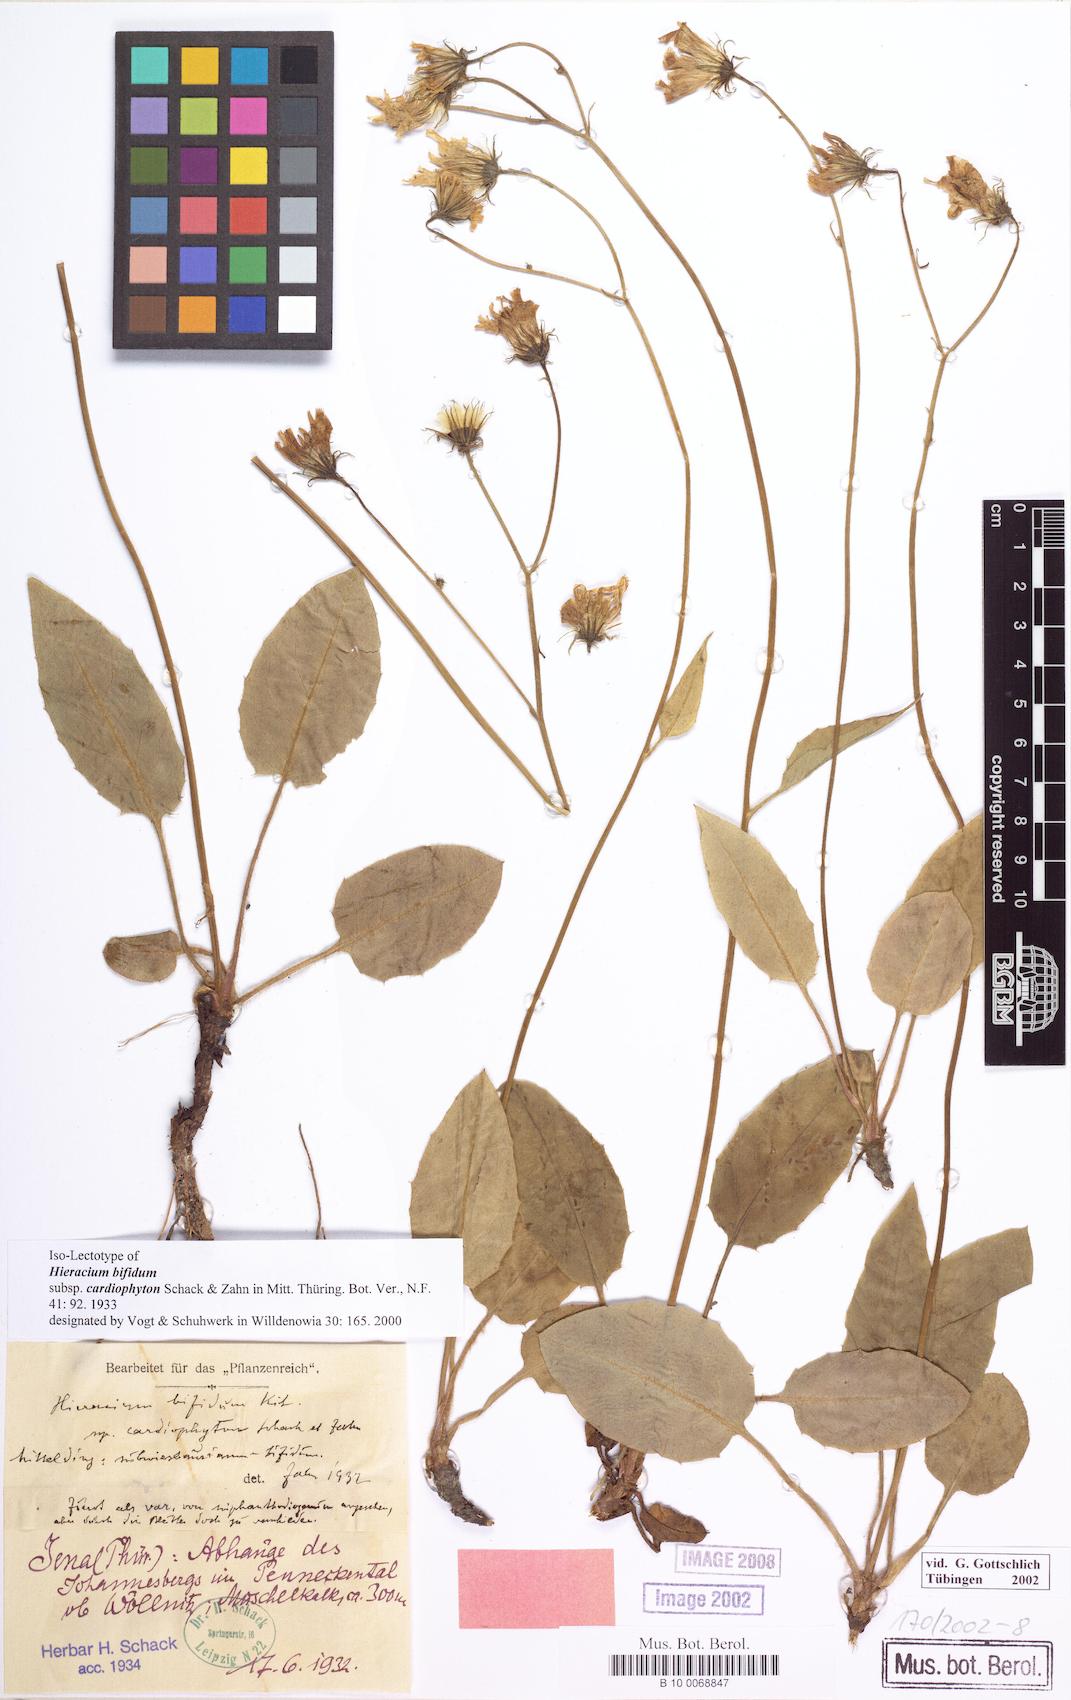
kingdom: Plantae
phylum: Tracheophyta
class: Magnoliopsida
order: Asterales
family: Asteraceae
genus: Hieracium
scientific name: Hieracium bifidum
